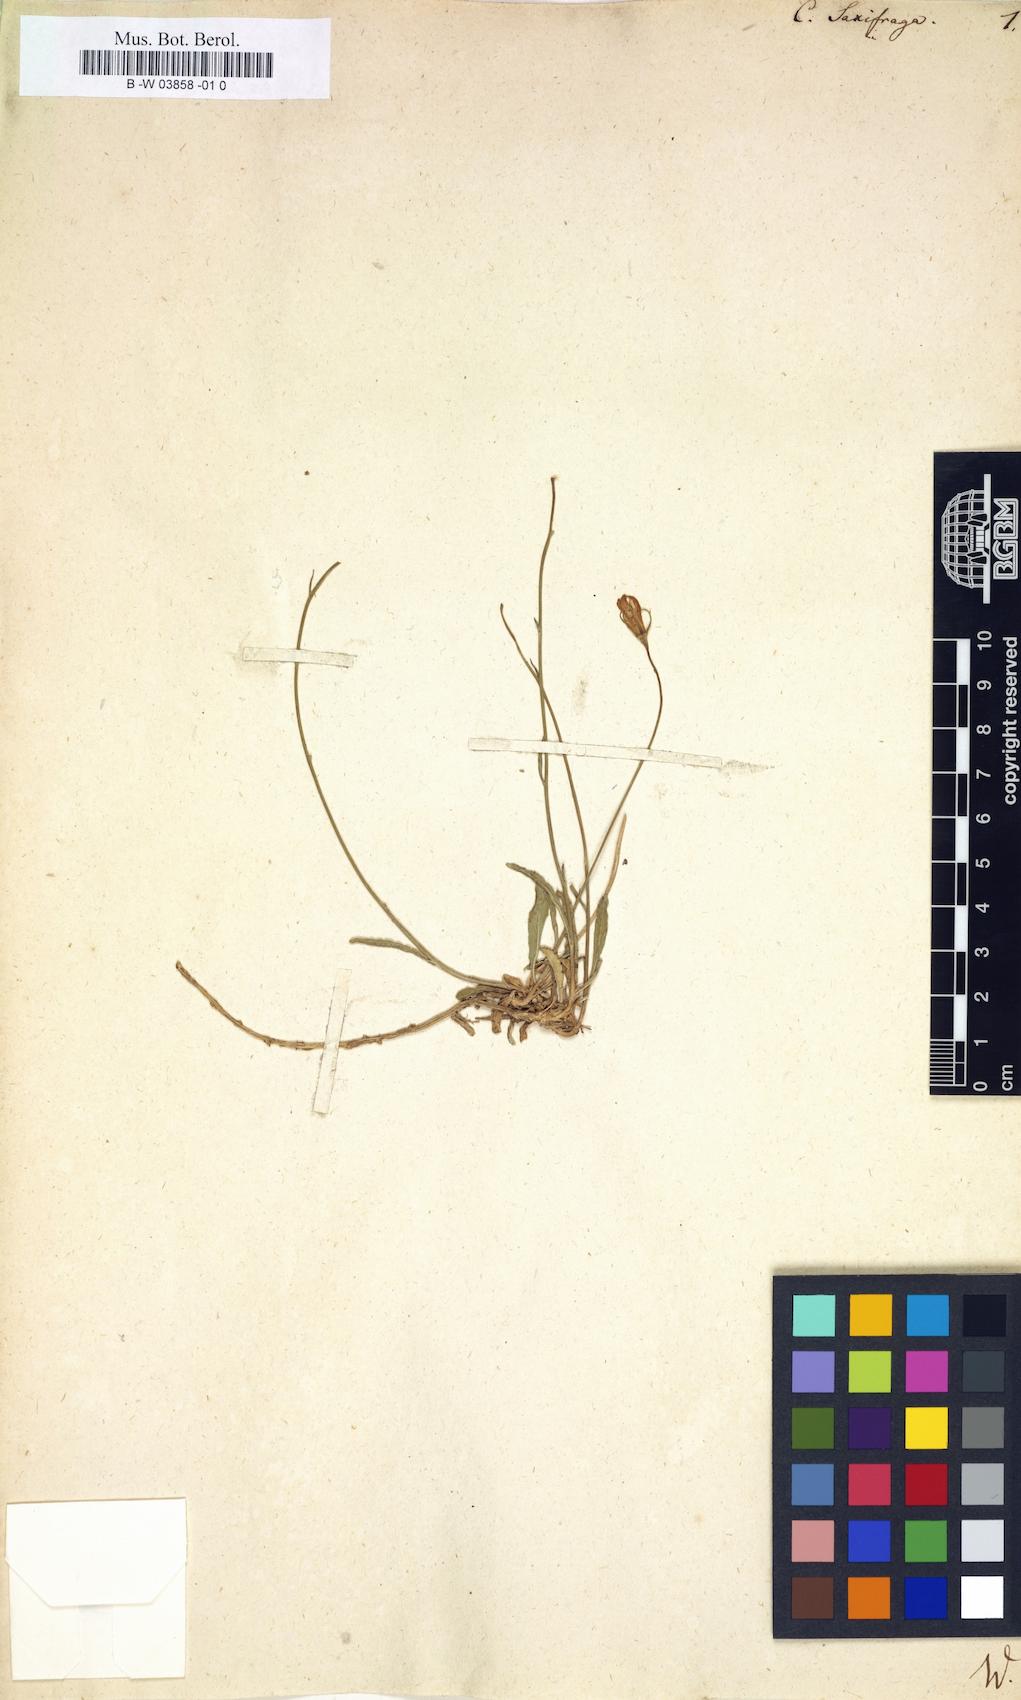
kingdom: Plantae
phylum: Tracheophyta
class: Magnoliopsida
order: Asterales
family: Campanulaceae
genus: Campanula
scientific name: Campanula saxifraga
